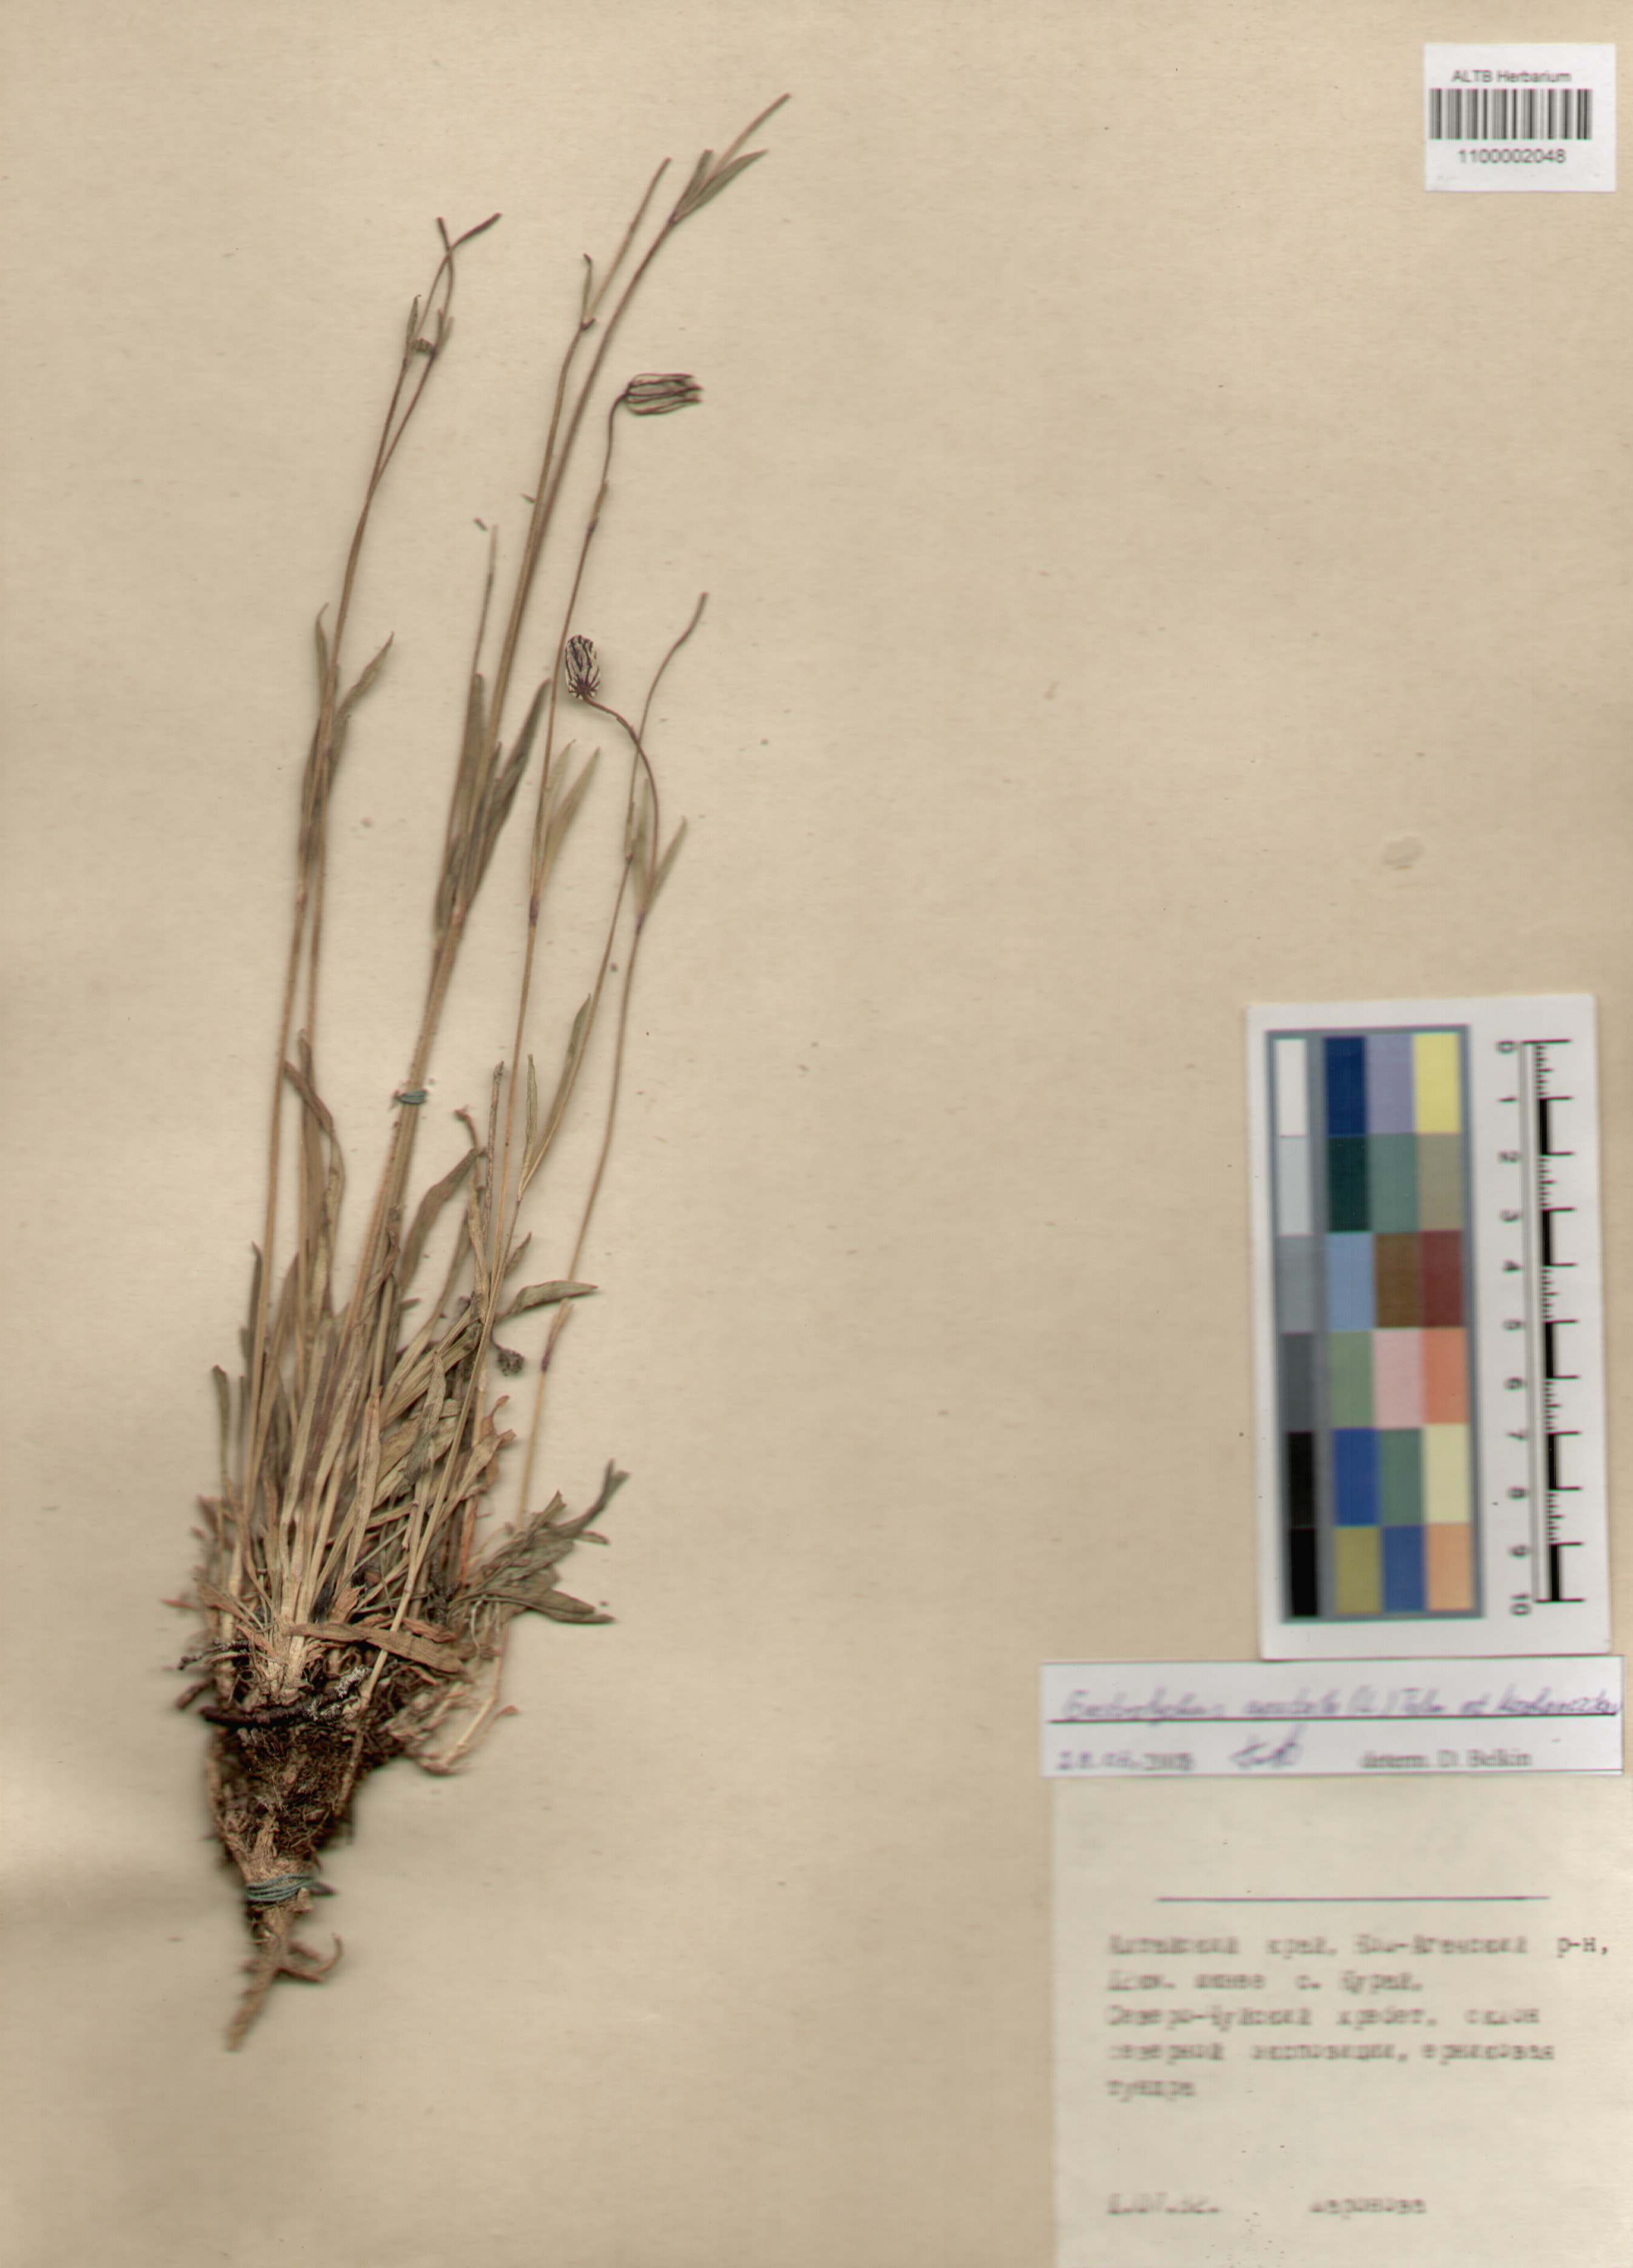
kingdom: Plantae
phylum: Tracheophyta
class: Magnoliopsida
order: Caryophyllales
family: Caryophyllaceae
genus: Silene
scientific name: Silene wahlbergella
